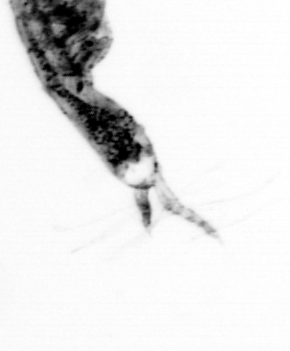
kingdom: Animalia
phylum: Arthropoda
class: Copepoda
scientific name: Copepoda
